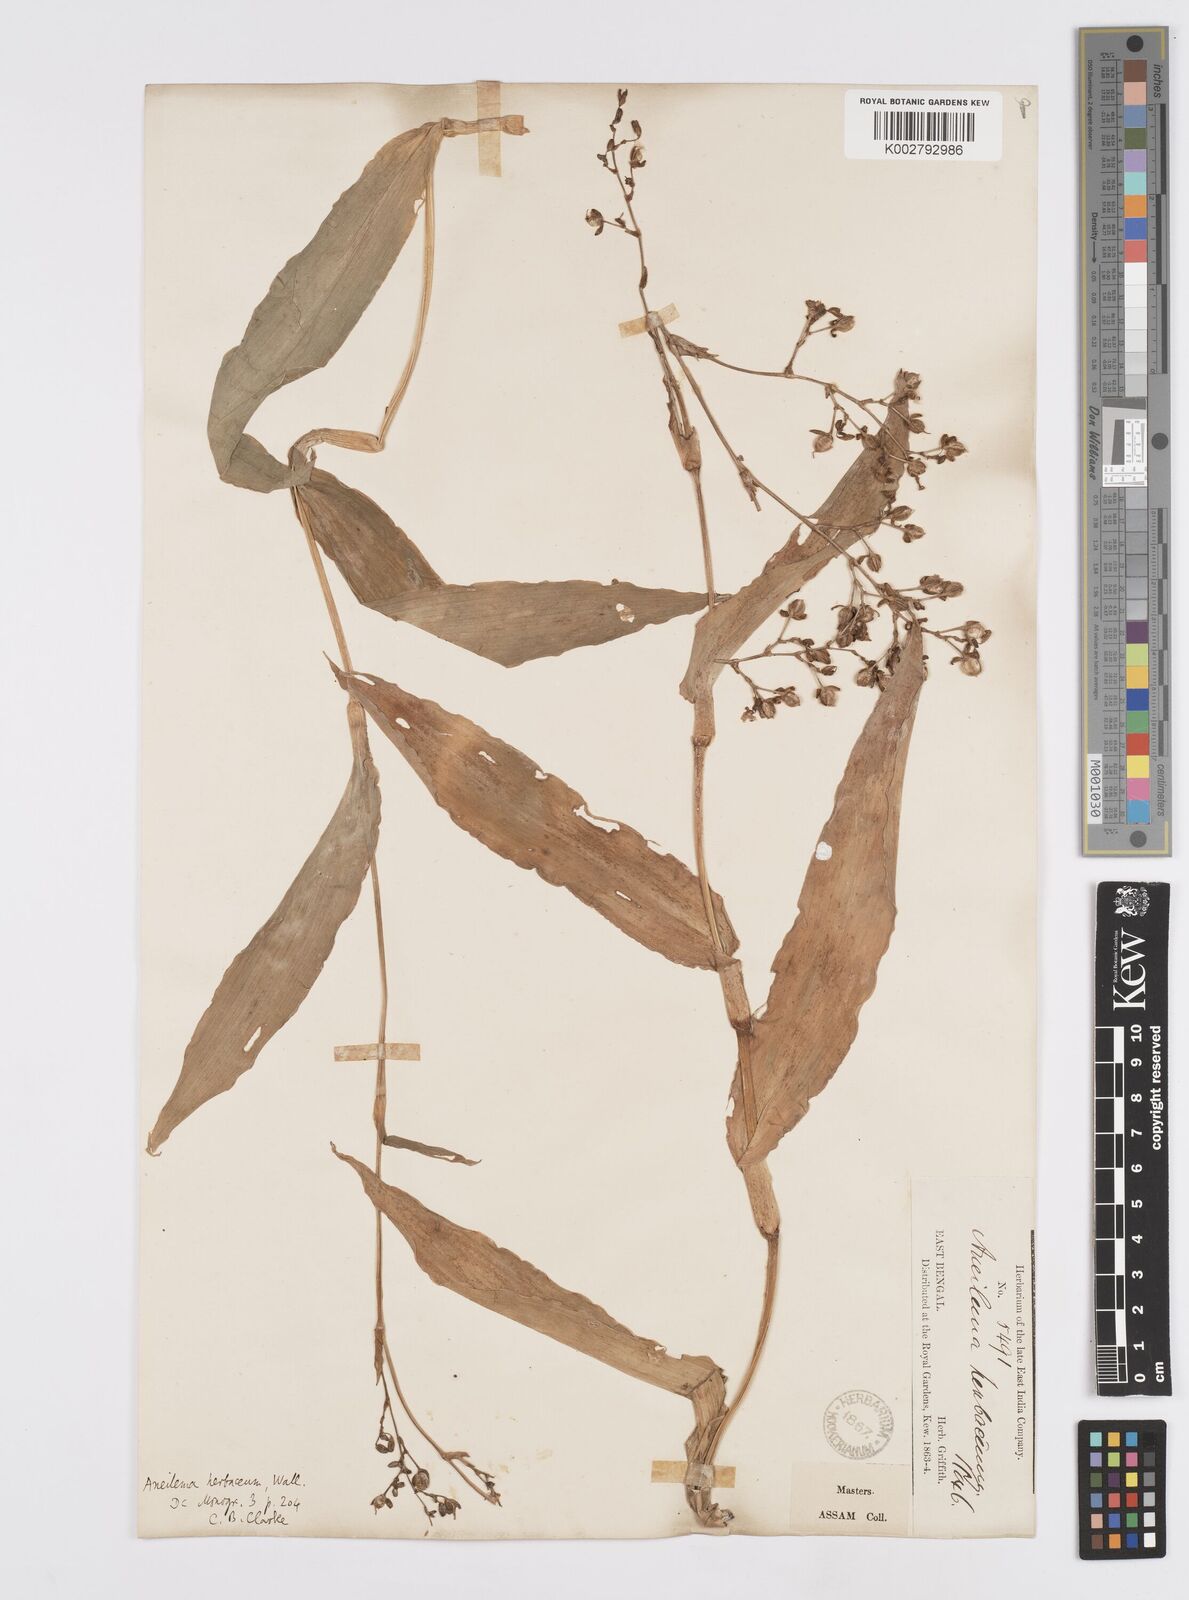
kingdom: Plantae
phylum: Tracheophyta
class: Liliopsida
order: Commelinales
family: Commelinaceae
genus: Murdannia
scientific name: Murdannia
